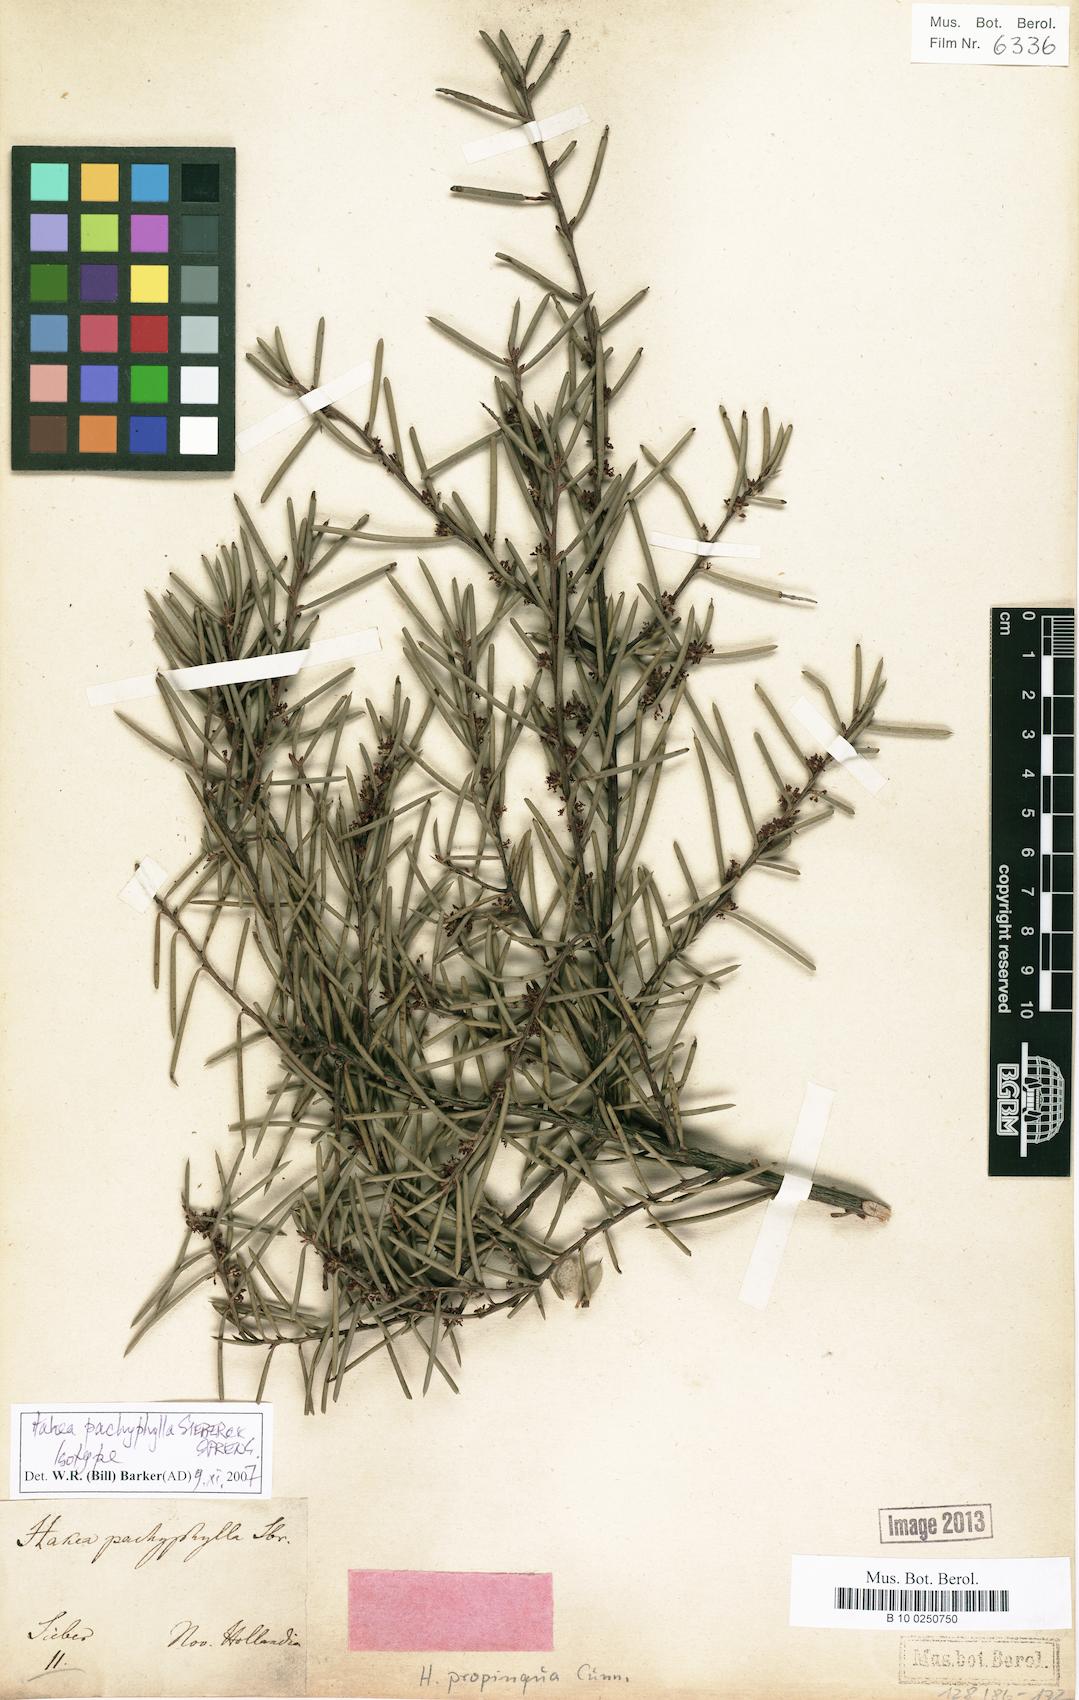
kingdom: Plantae
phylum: Tracheophyta
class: Magnoliopsida
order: Proteales
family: Proteaceae
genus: Hakea
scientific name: Hakea pachyphylla
